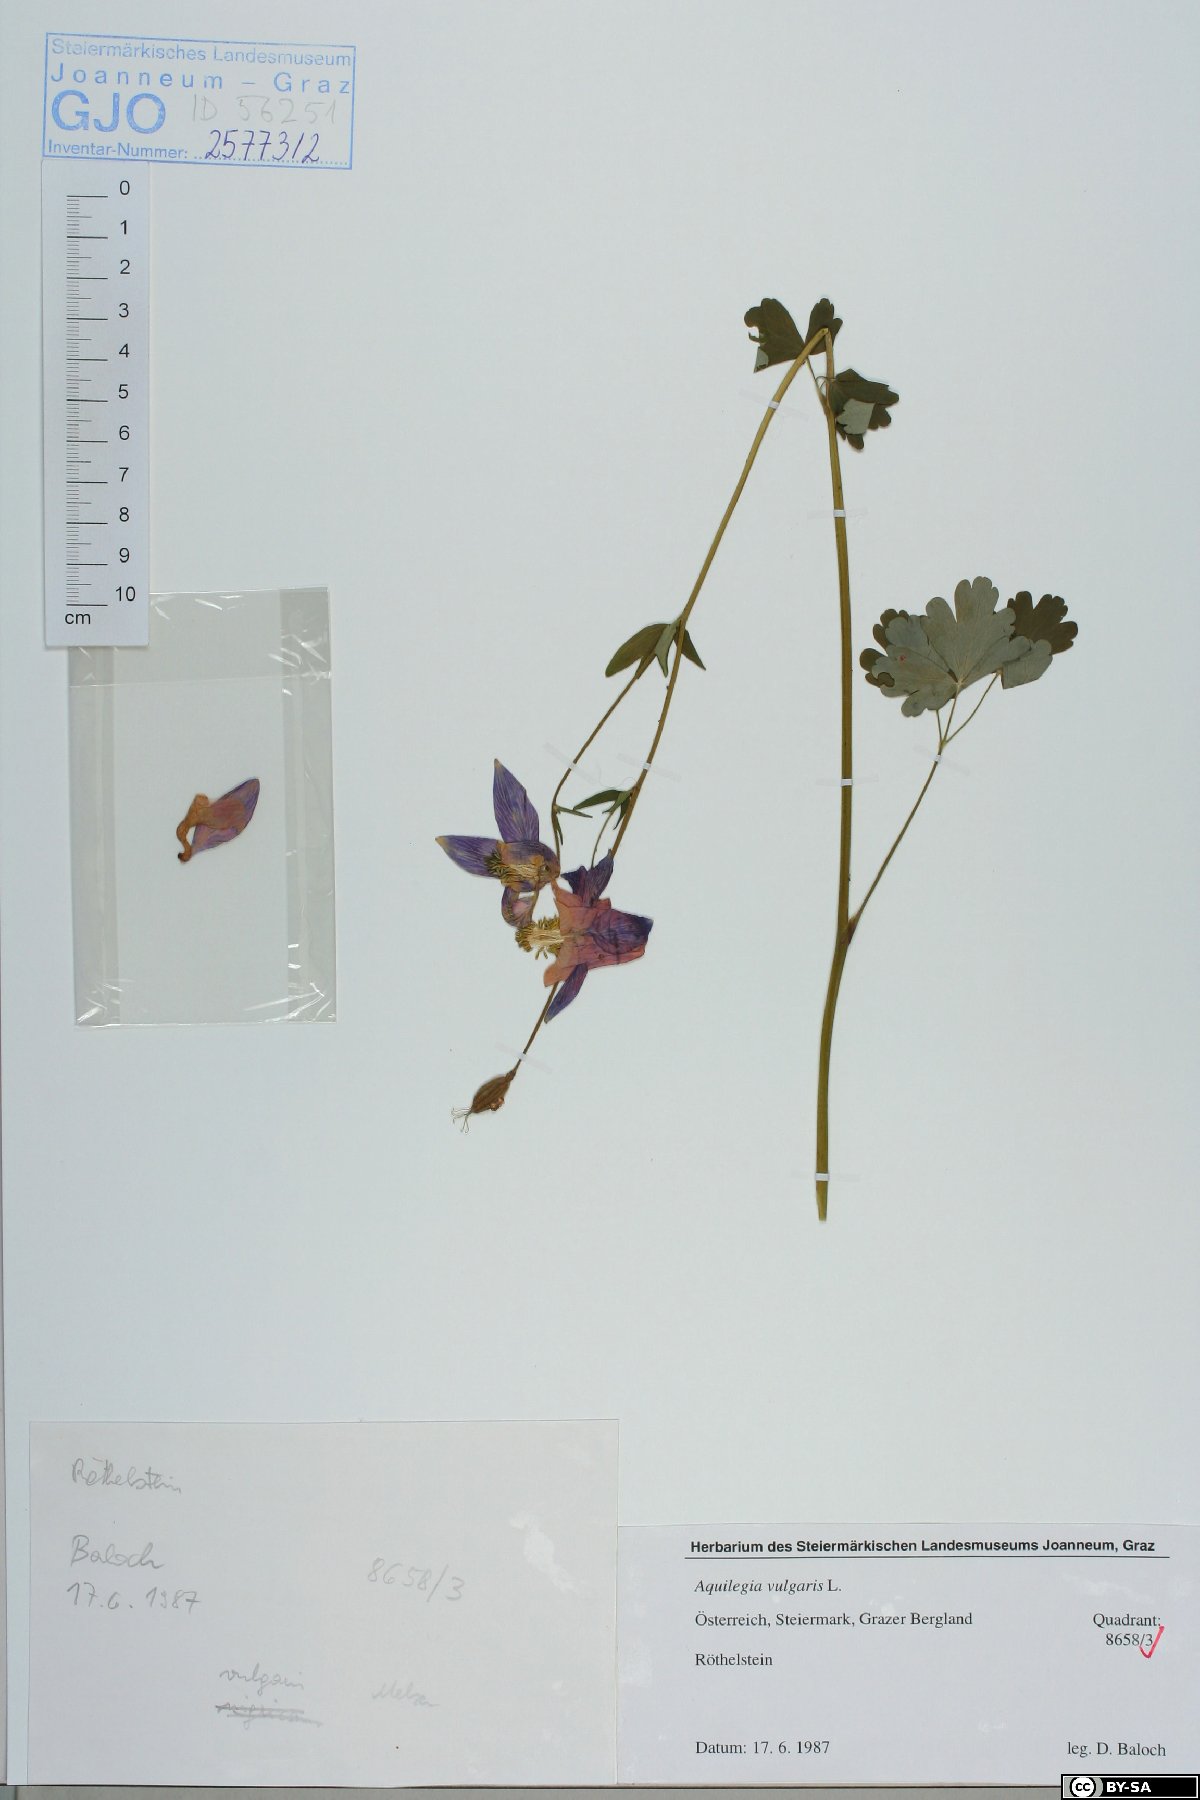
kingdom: Plantae
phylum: Tracheophyta
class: Magnoliopsida
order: Ranunculales
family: Ranunculaceae
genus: Aquilegia
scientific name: Aquilegia vulgaris
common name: Columbine
